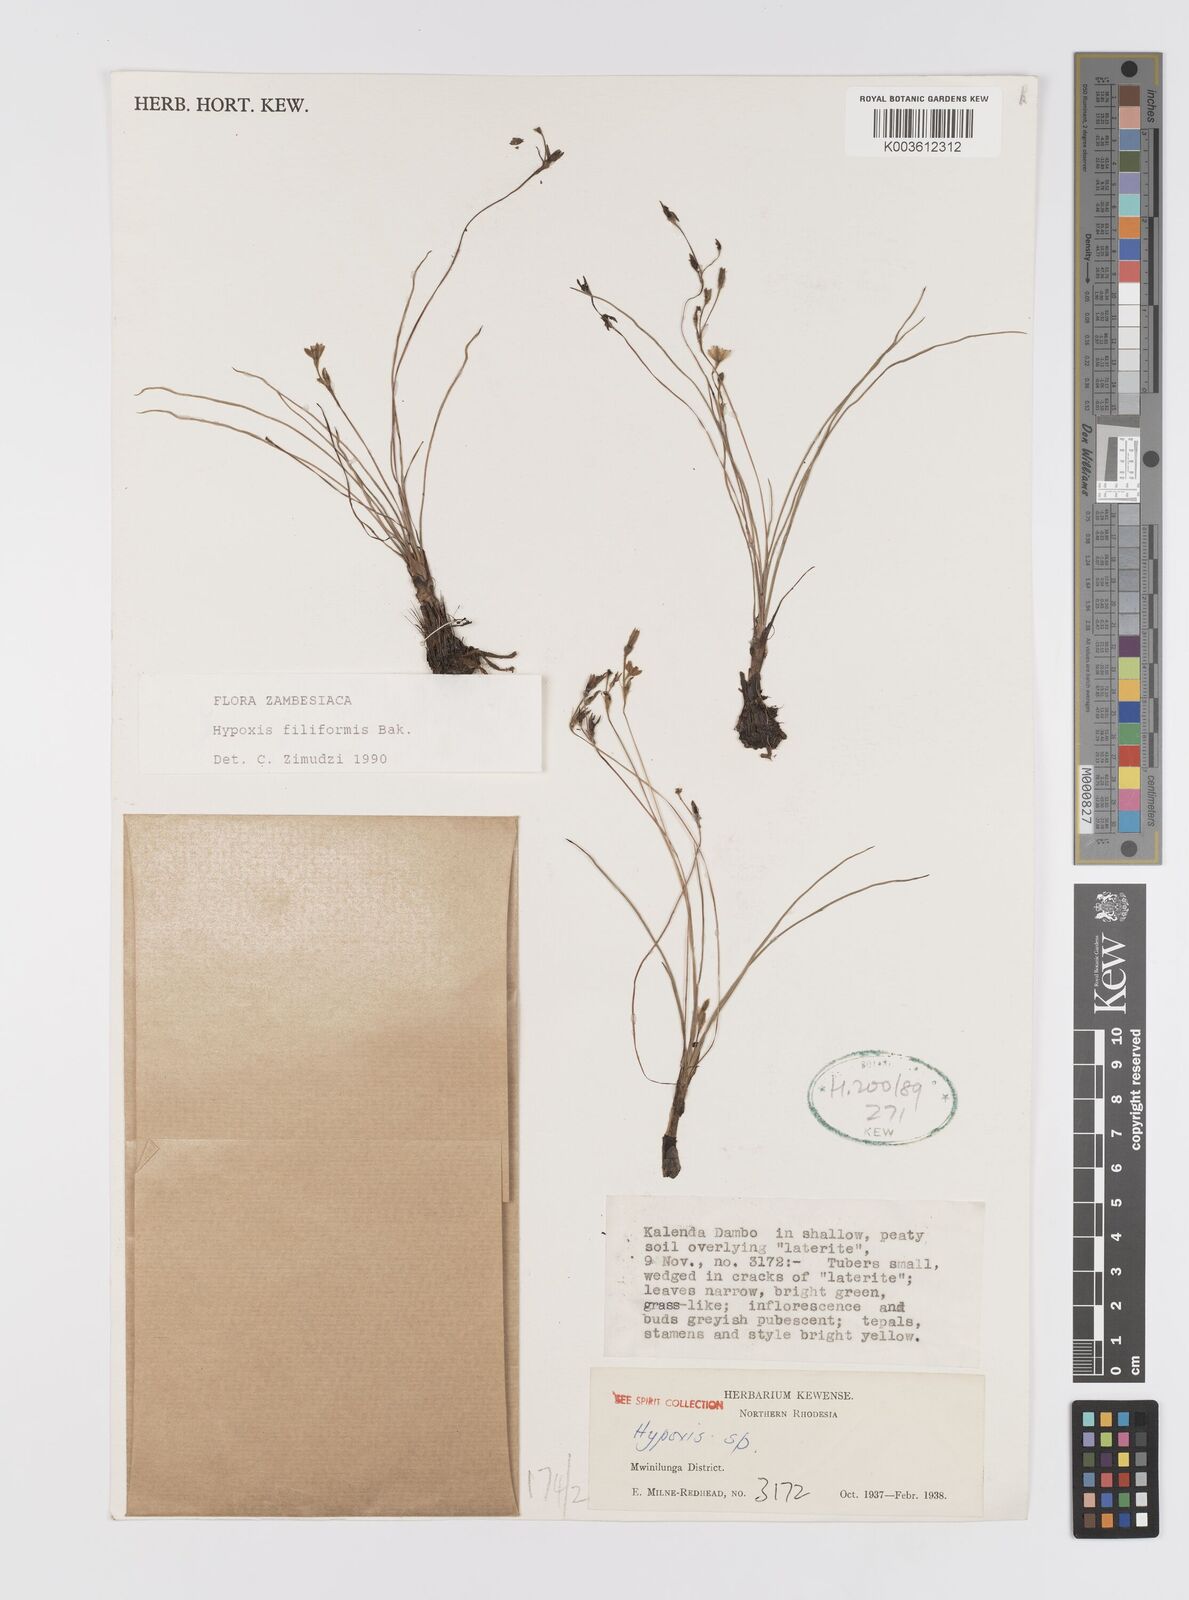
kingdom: Plantae
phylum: Tracheophyta
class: Liliopsida
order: Asparagales
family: Hypoxidaceae
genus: Hypoxis
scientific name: Hypoxis filiformis
